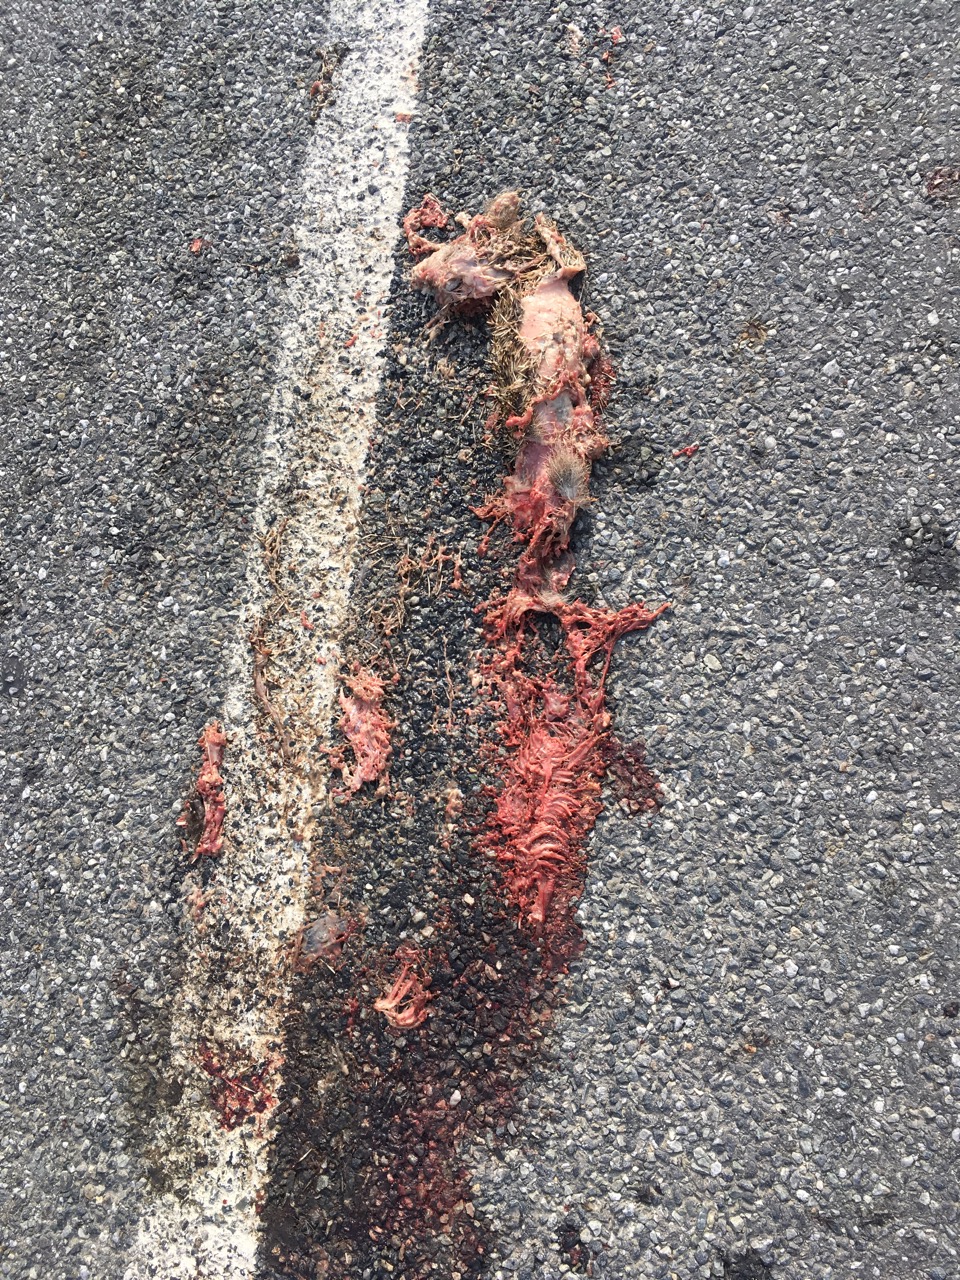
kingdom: Animalia
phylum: Chordata
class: Mammalia
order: Erinaceomorpha
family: Erinaceidae
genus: Erinaceus
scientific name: Erinaceus
